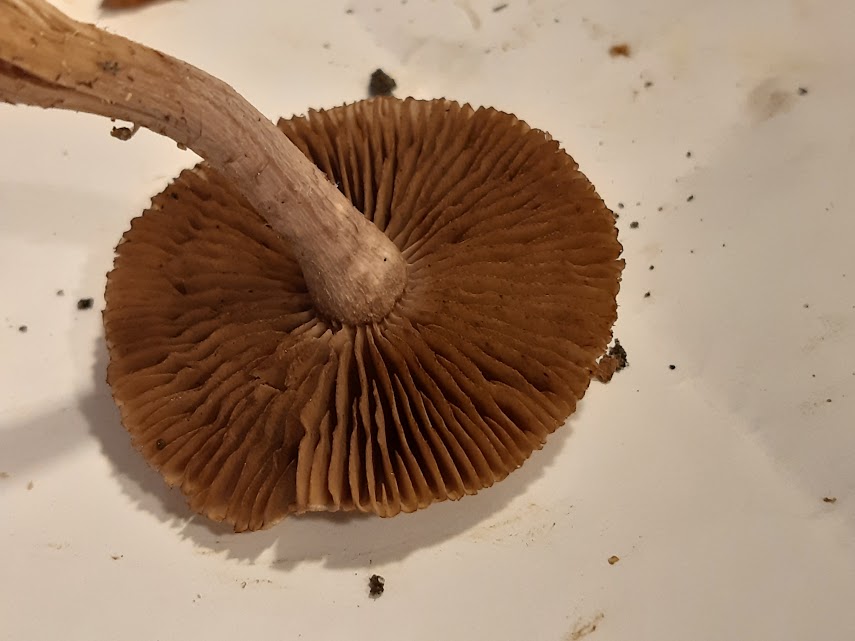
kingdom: Fungi
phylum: Basidiomycota
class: Agaricomycetes
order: Agaricales
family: Inocybaceae
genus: Inocybe
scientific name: Inocybe
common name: trævlhat
